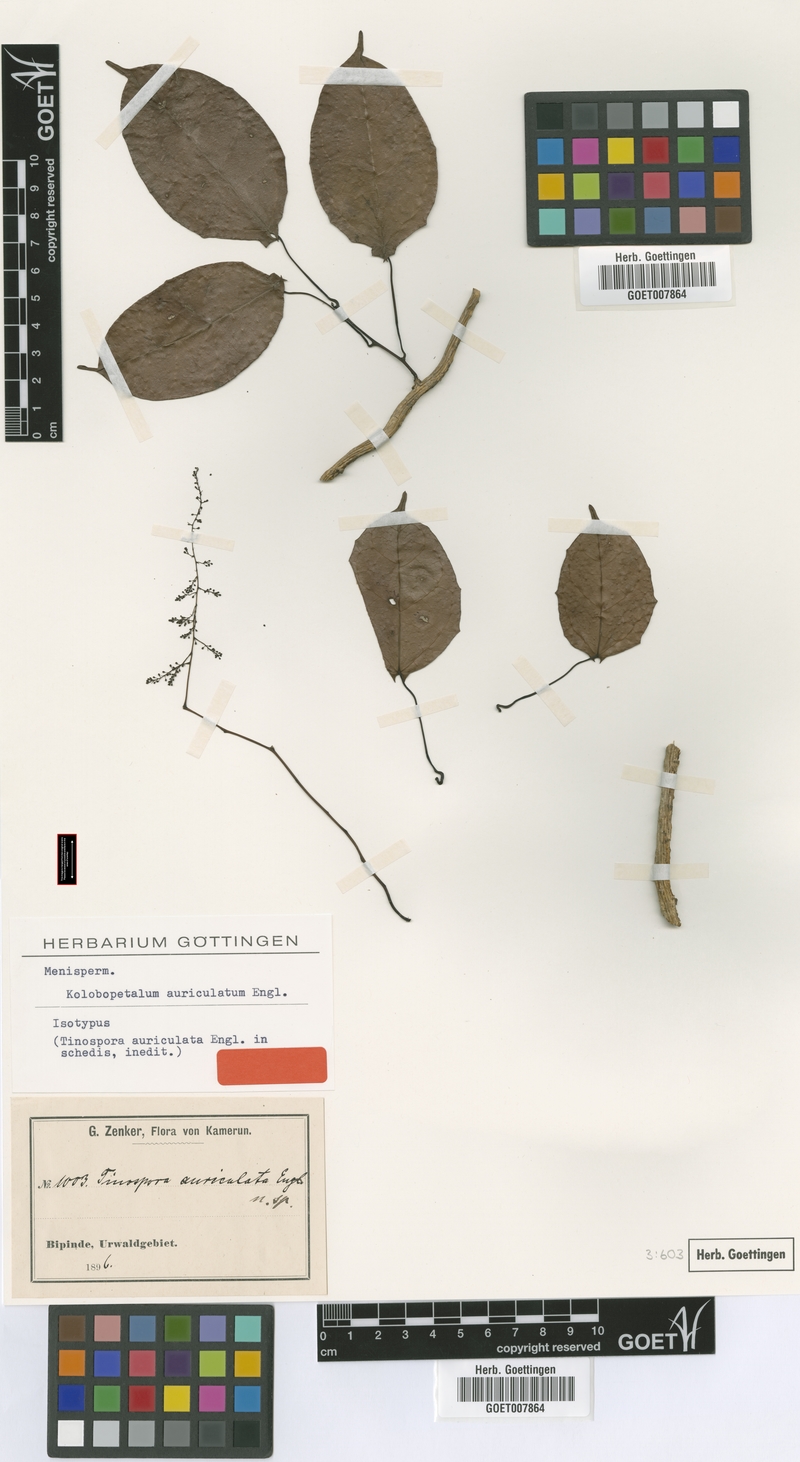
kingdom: Plantae
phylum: Tracheophyta
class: Magnoliopsida
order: Ranunculales
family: Menispermaceae
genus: Kolobopetalum
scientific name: Kolobopetalum auriculatum
